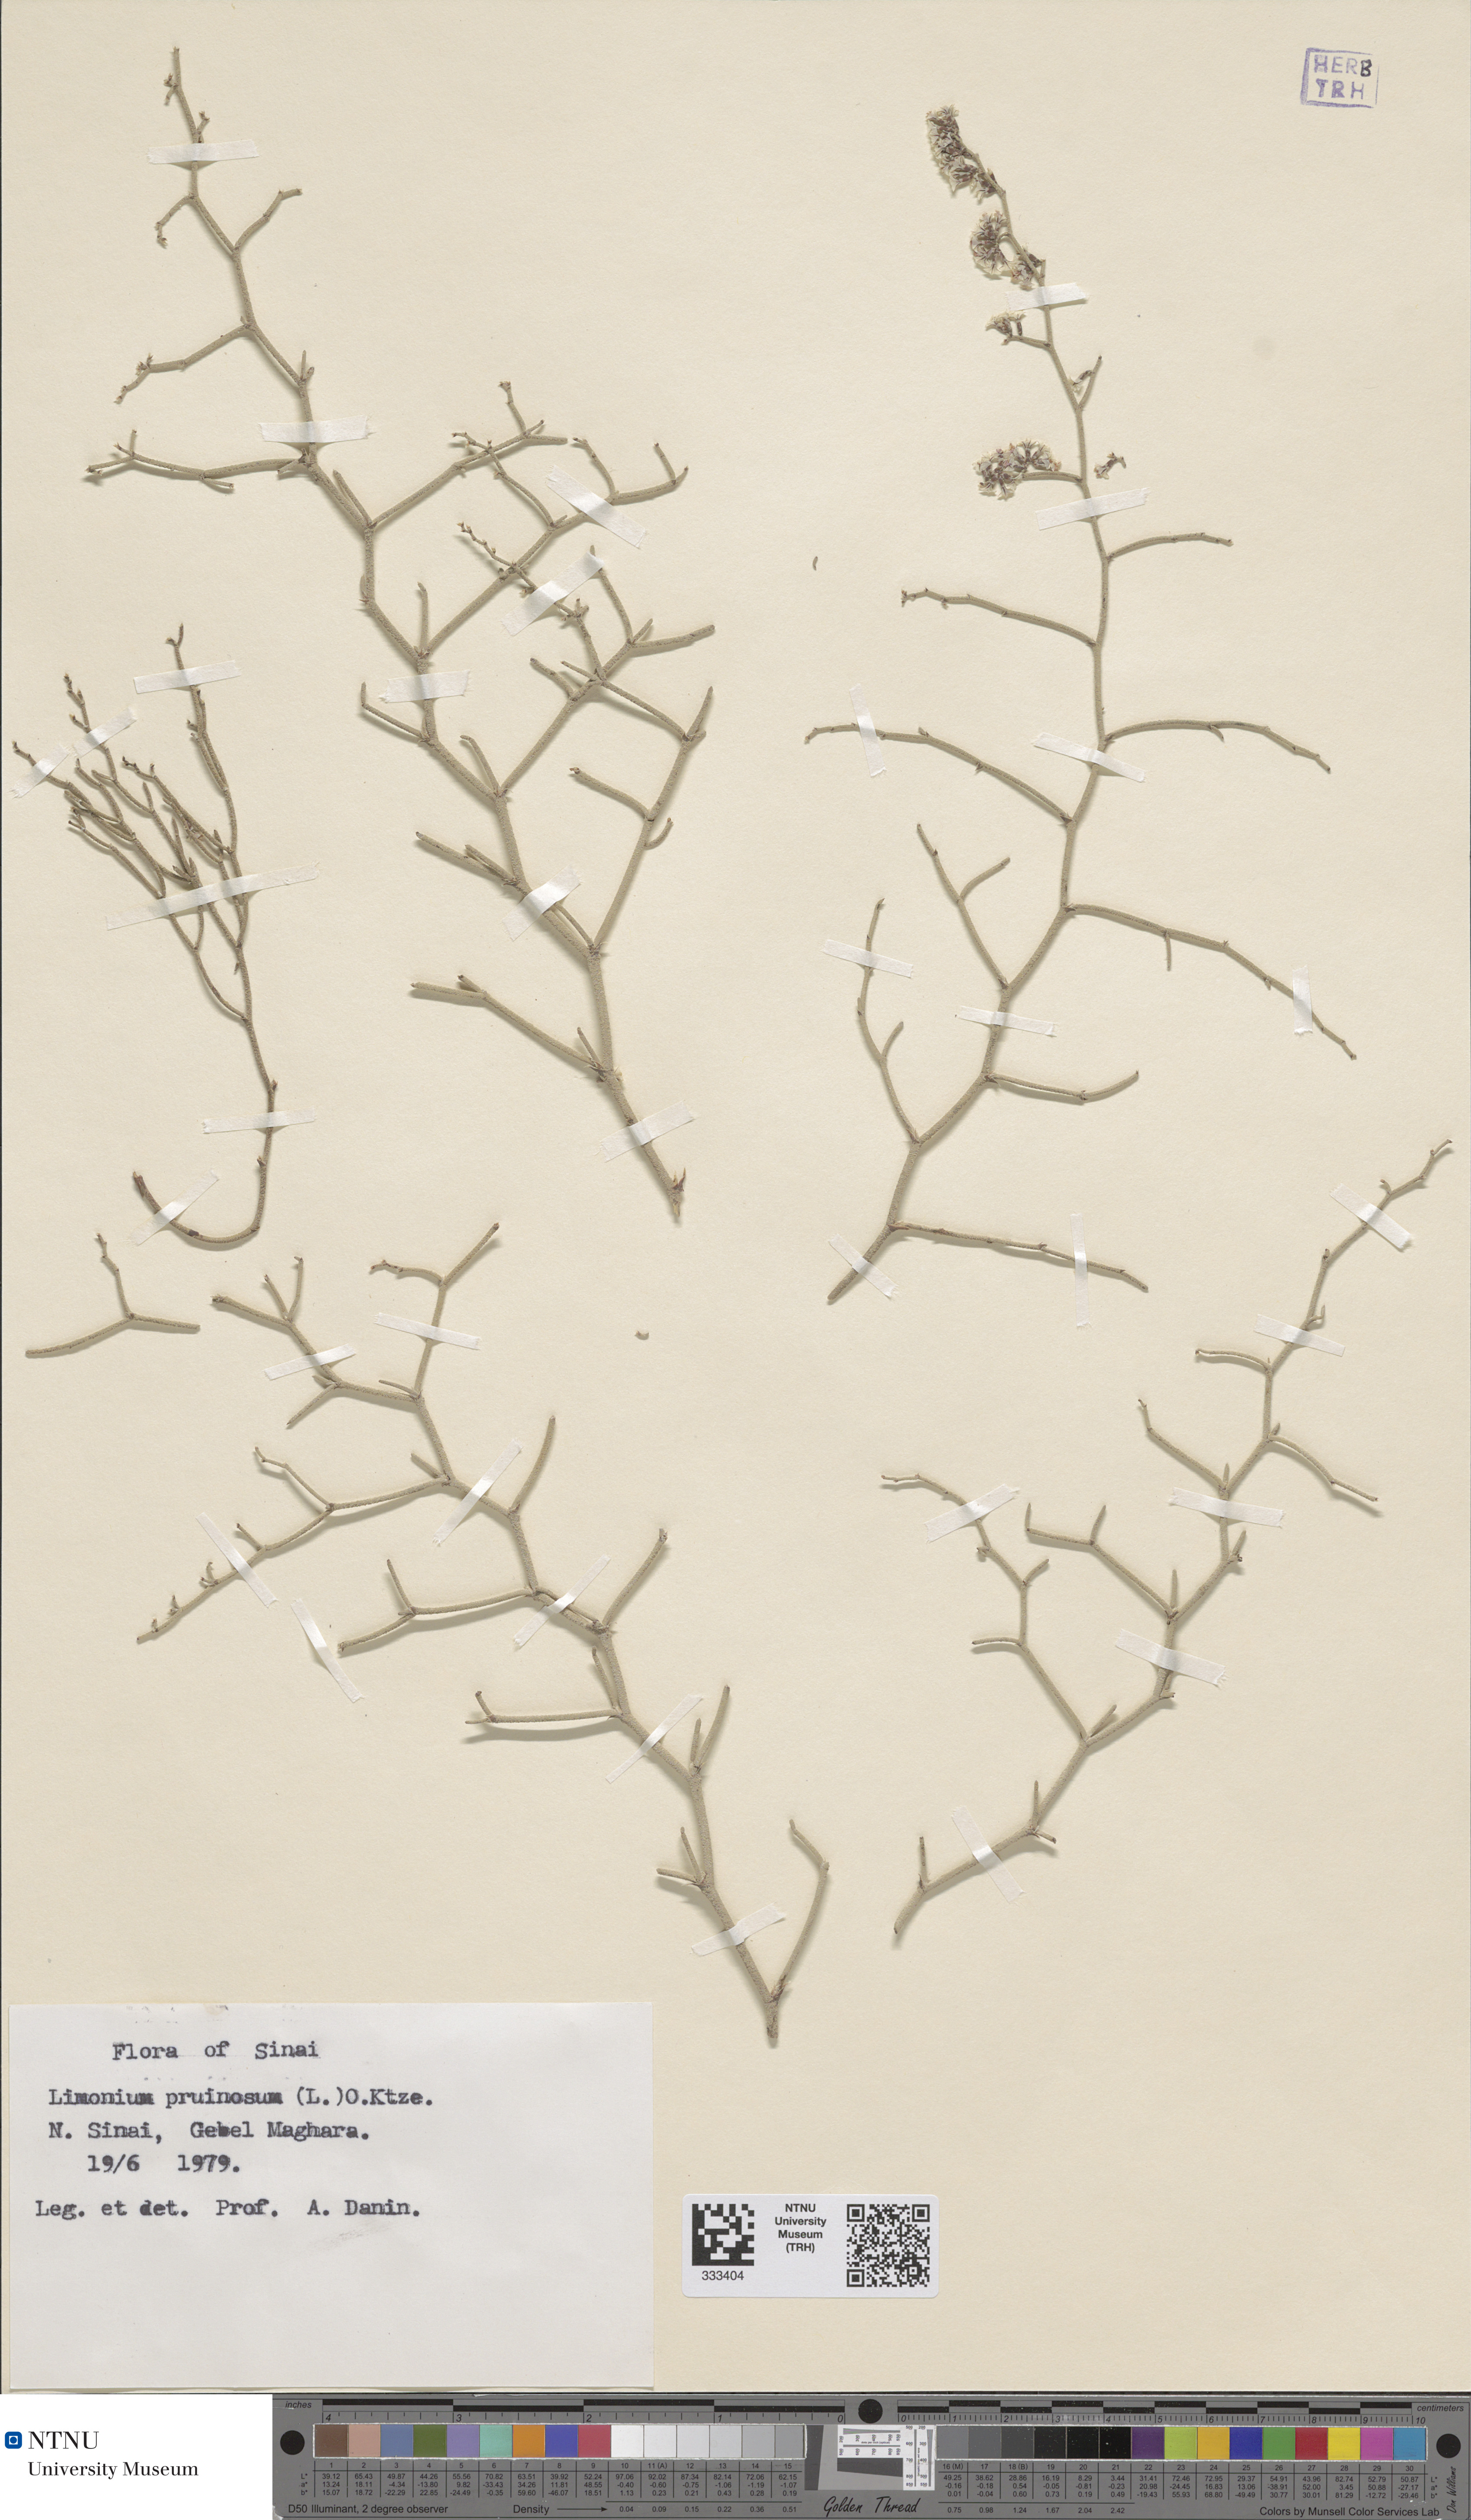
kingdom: Plantae
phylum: Tracheophyta
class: Magnoliopsida
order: Caryophyllales
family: Plumbaginaceae
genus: Limonium
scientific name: Limonium pruinosum
